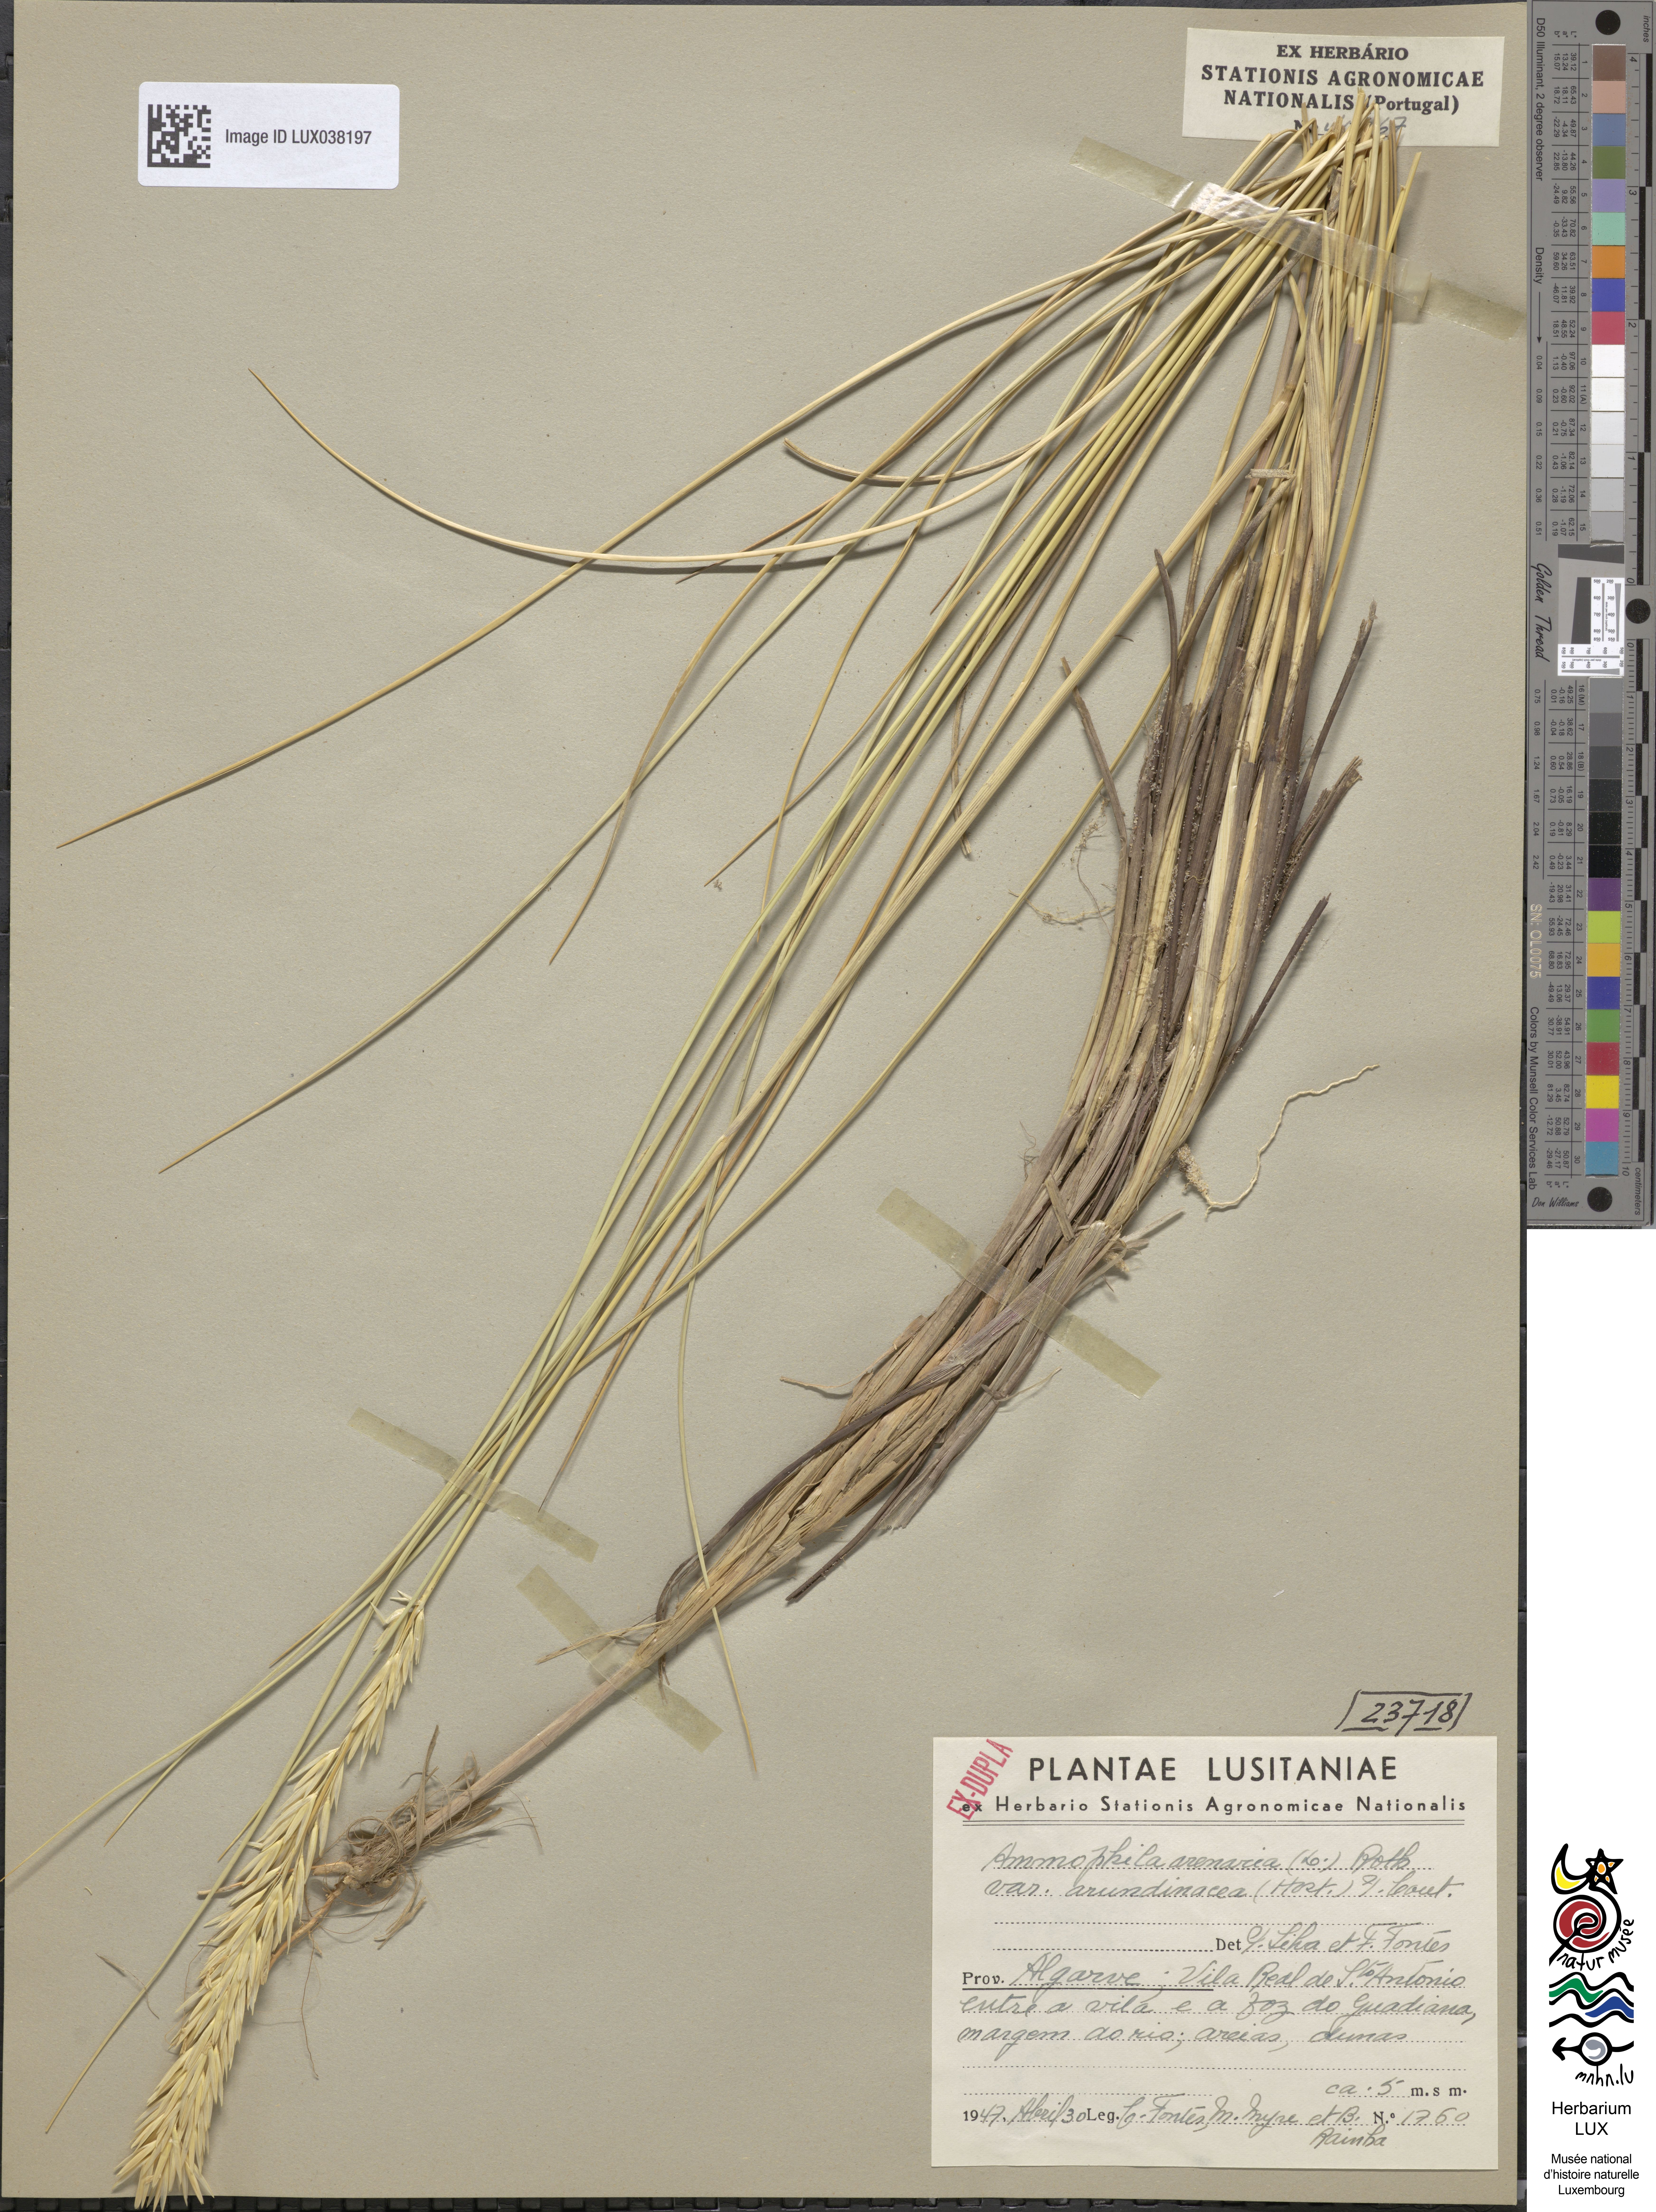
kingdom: Plantae
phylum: Tracheophyta
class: Liliopsida
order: Poales
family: Poaceae
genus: Calamagrostis
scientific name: Calamagrostis arenaria
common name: European beachgrass
